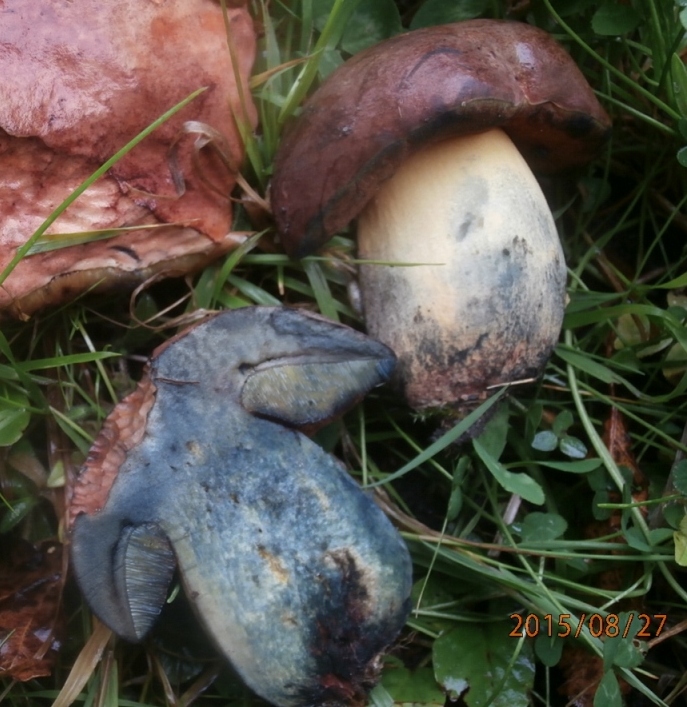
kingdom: Fungi
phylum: Basidiomycota
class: Agaricomycetes
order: Boletales
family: Boletaceae
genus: Suillellus
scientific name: Suillellus queletii
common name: glatstokket indigorørhat
